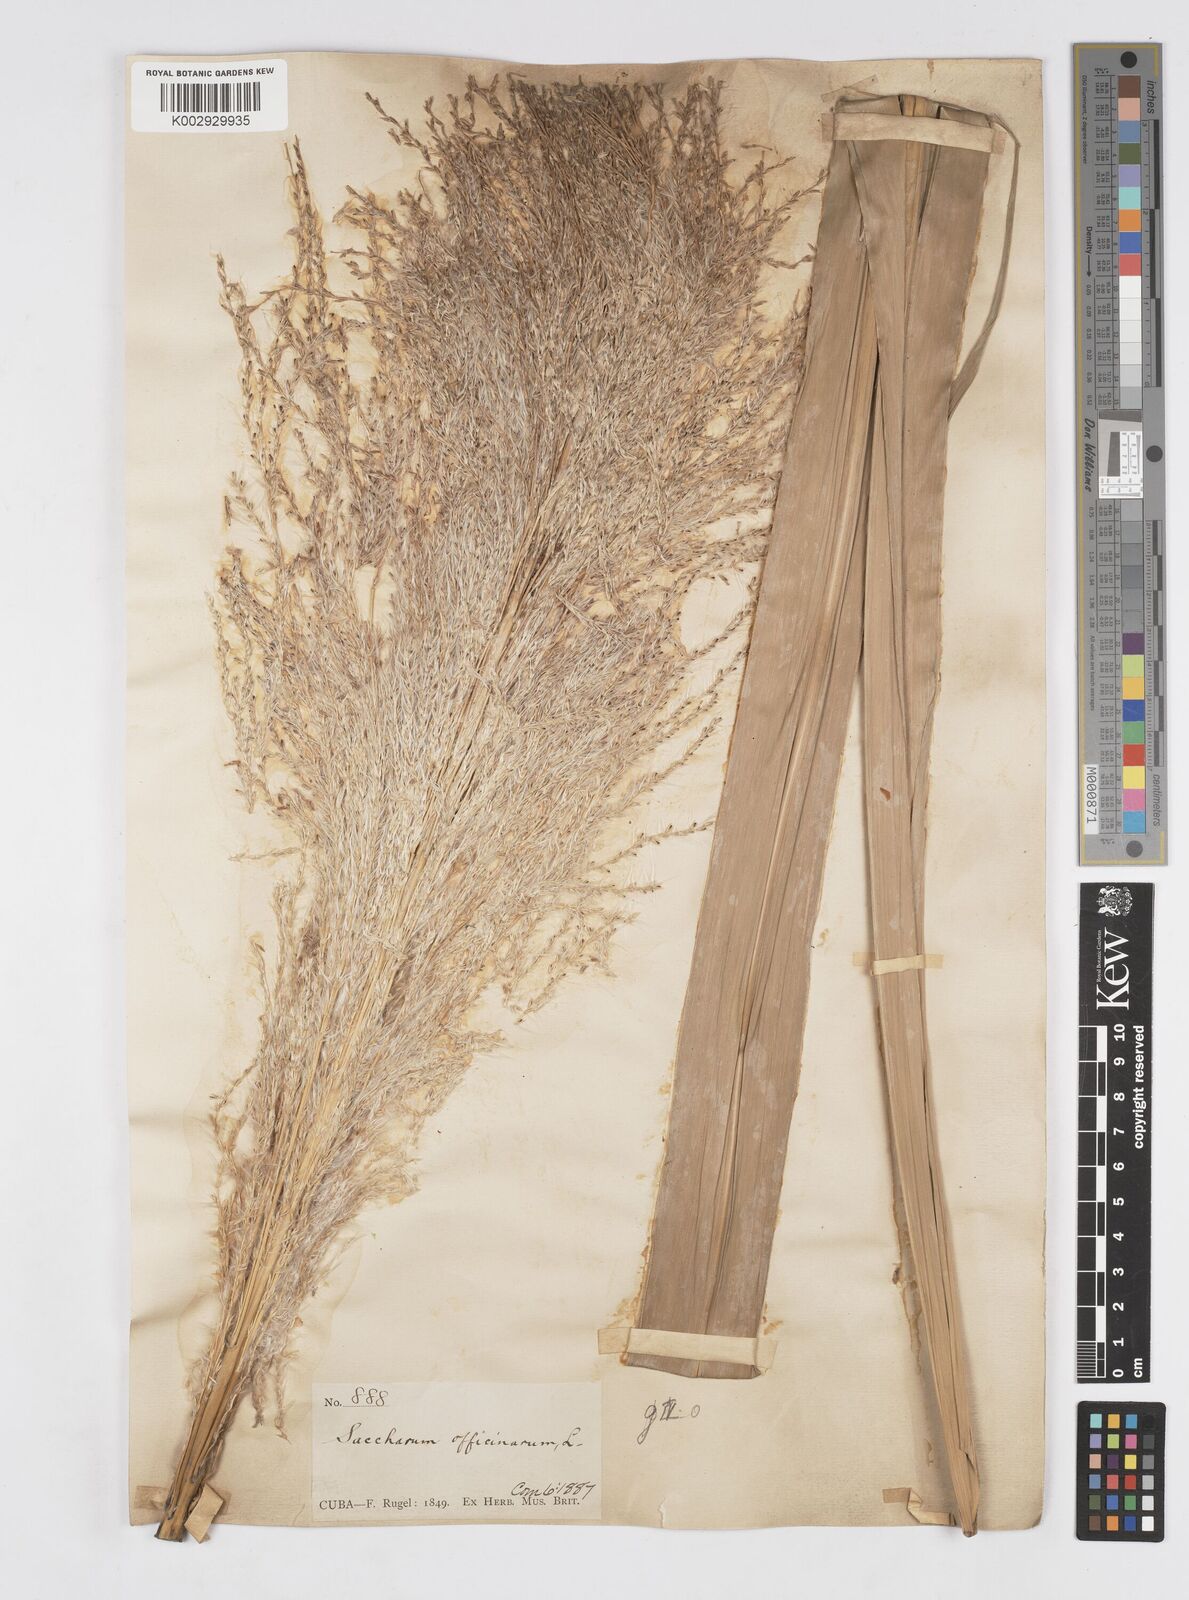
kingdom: Plantae
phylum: Tracheophyta
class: Liliopsida
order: Poales
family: Poaceae
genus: Saccharum
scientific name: Saccharum officinarum
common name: Sugarcane
